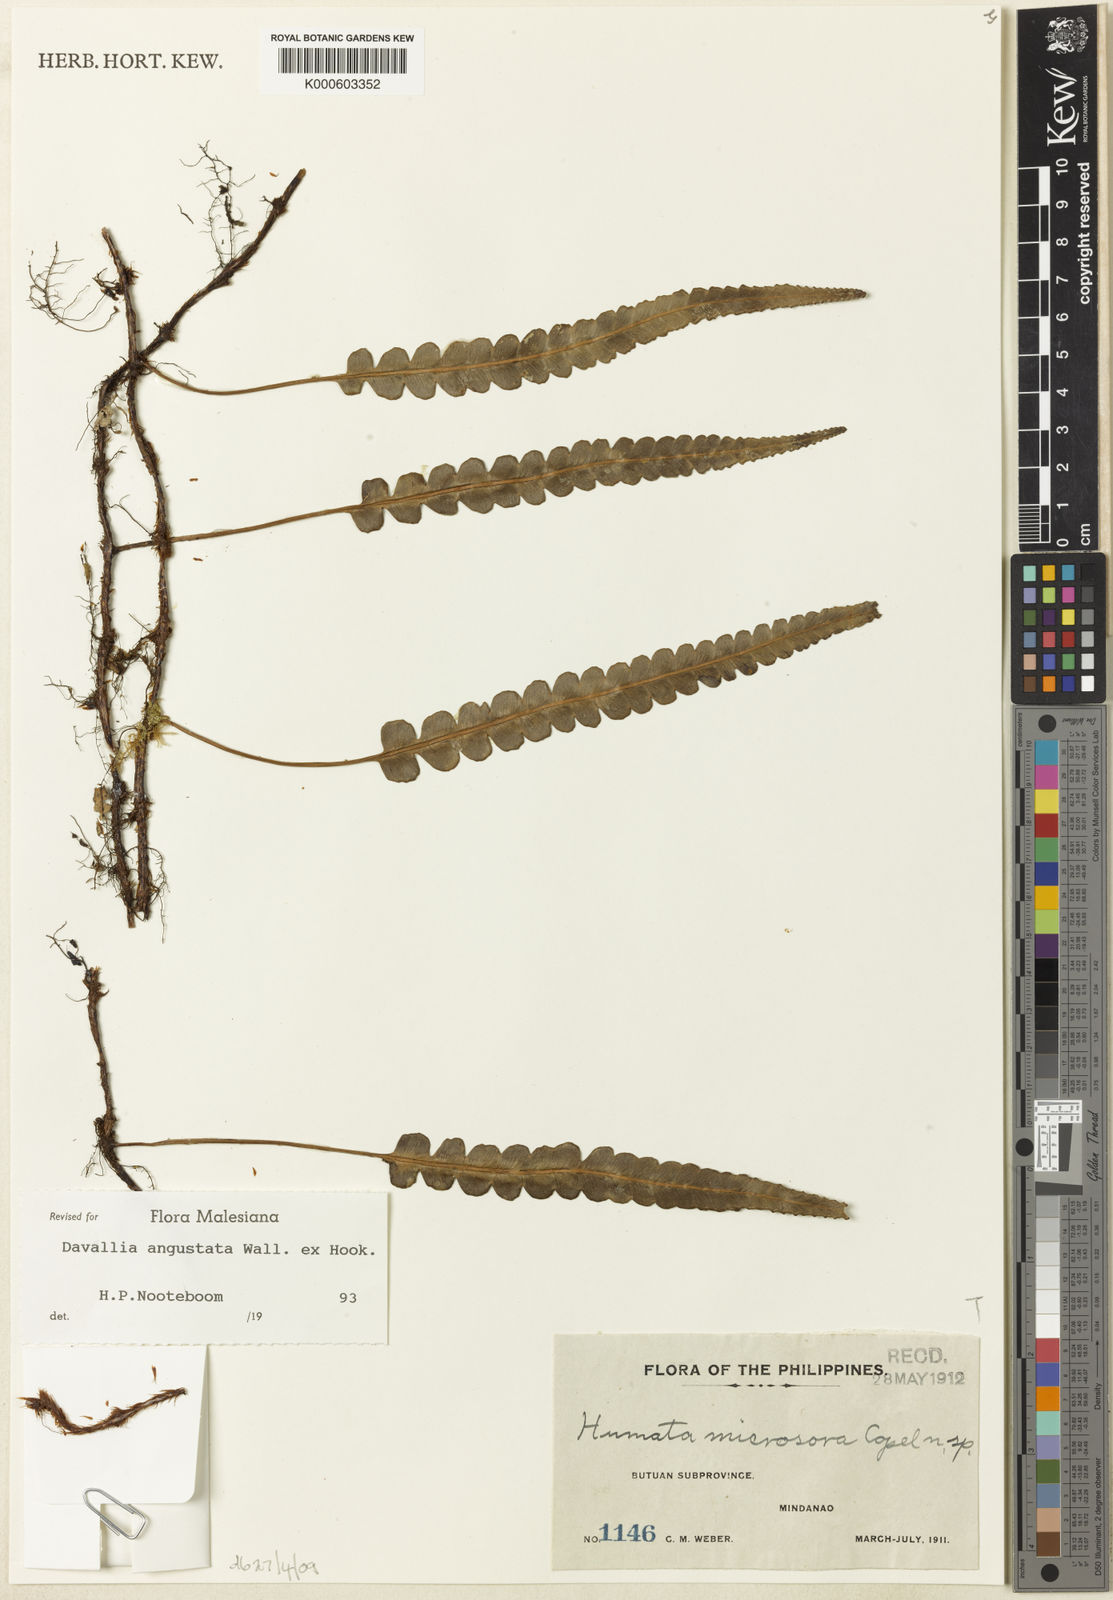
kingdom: Plantae
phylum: Tracheophyta
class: Polypodiopsida
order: Polypodiales
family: Davalliaceae
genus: Davallia
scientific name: Davallia angustata
